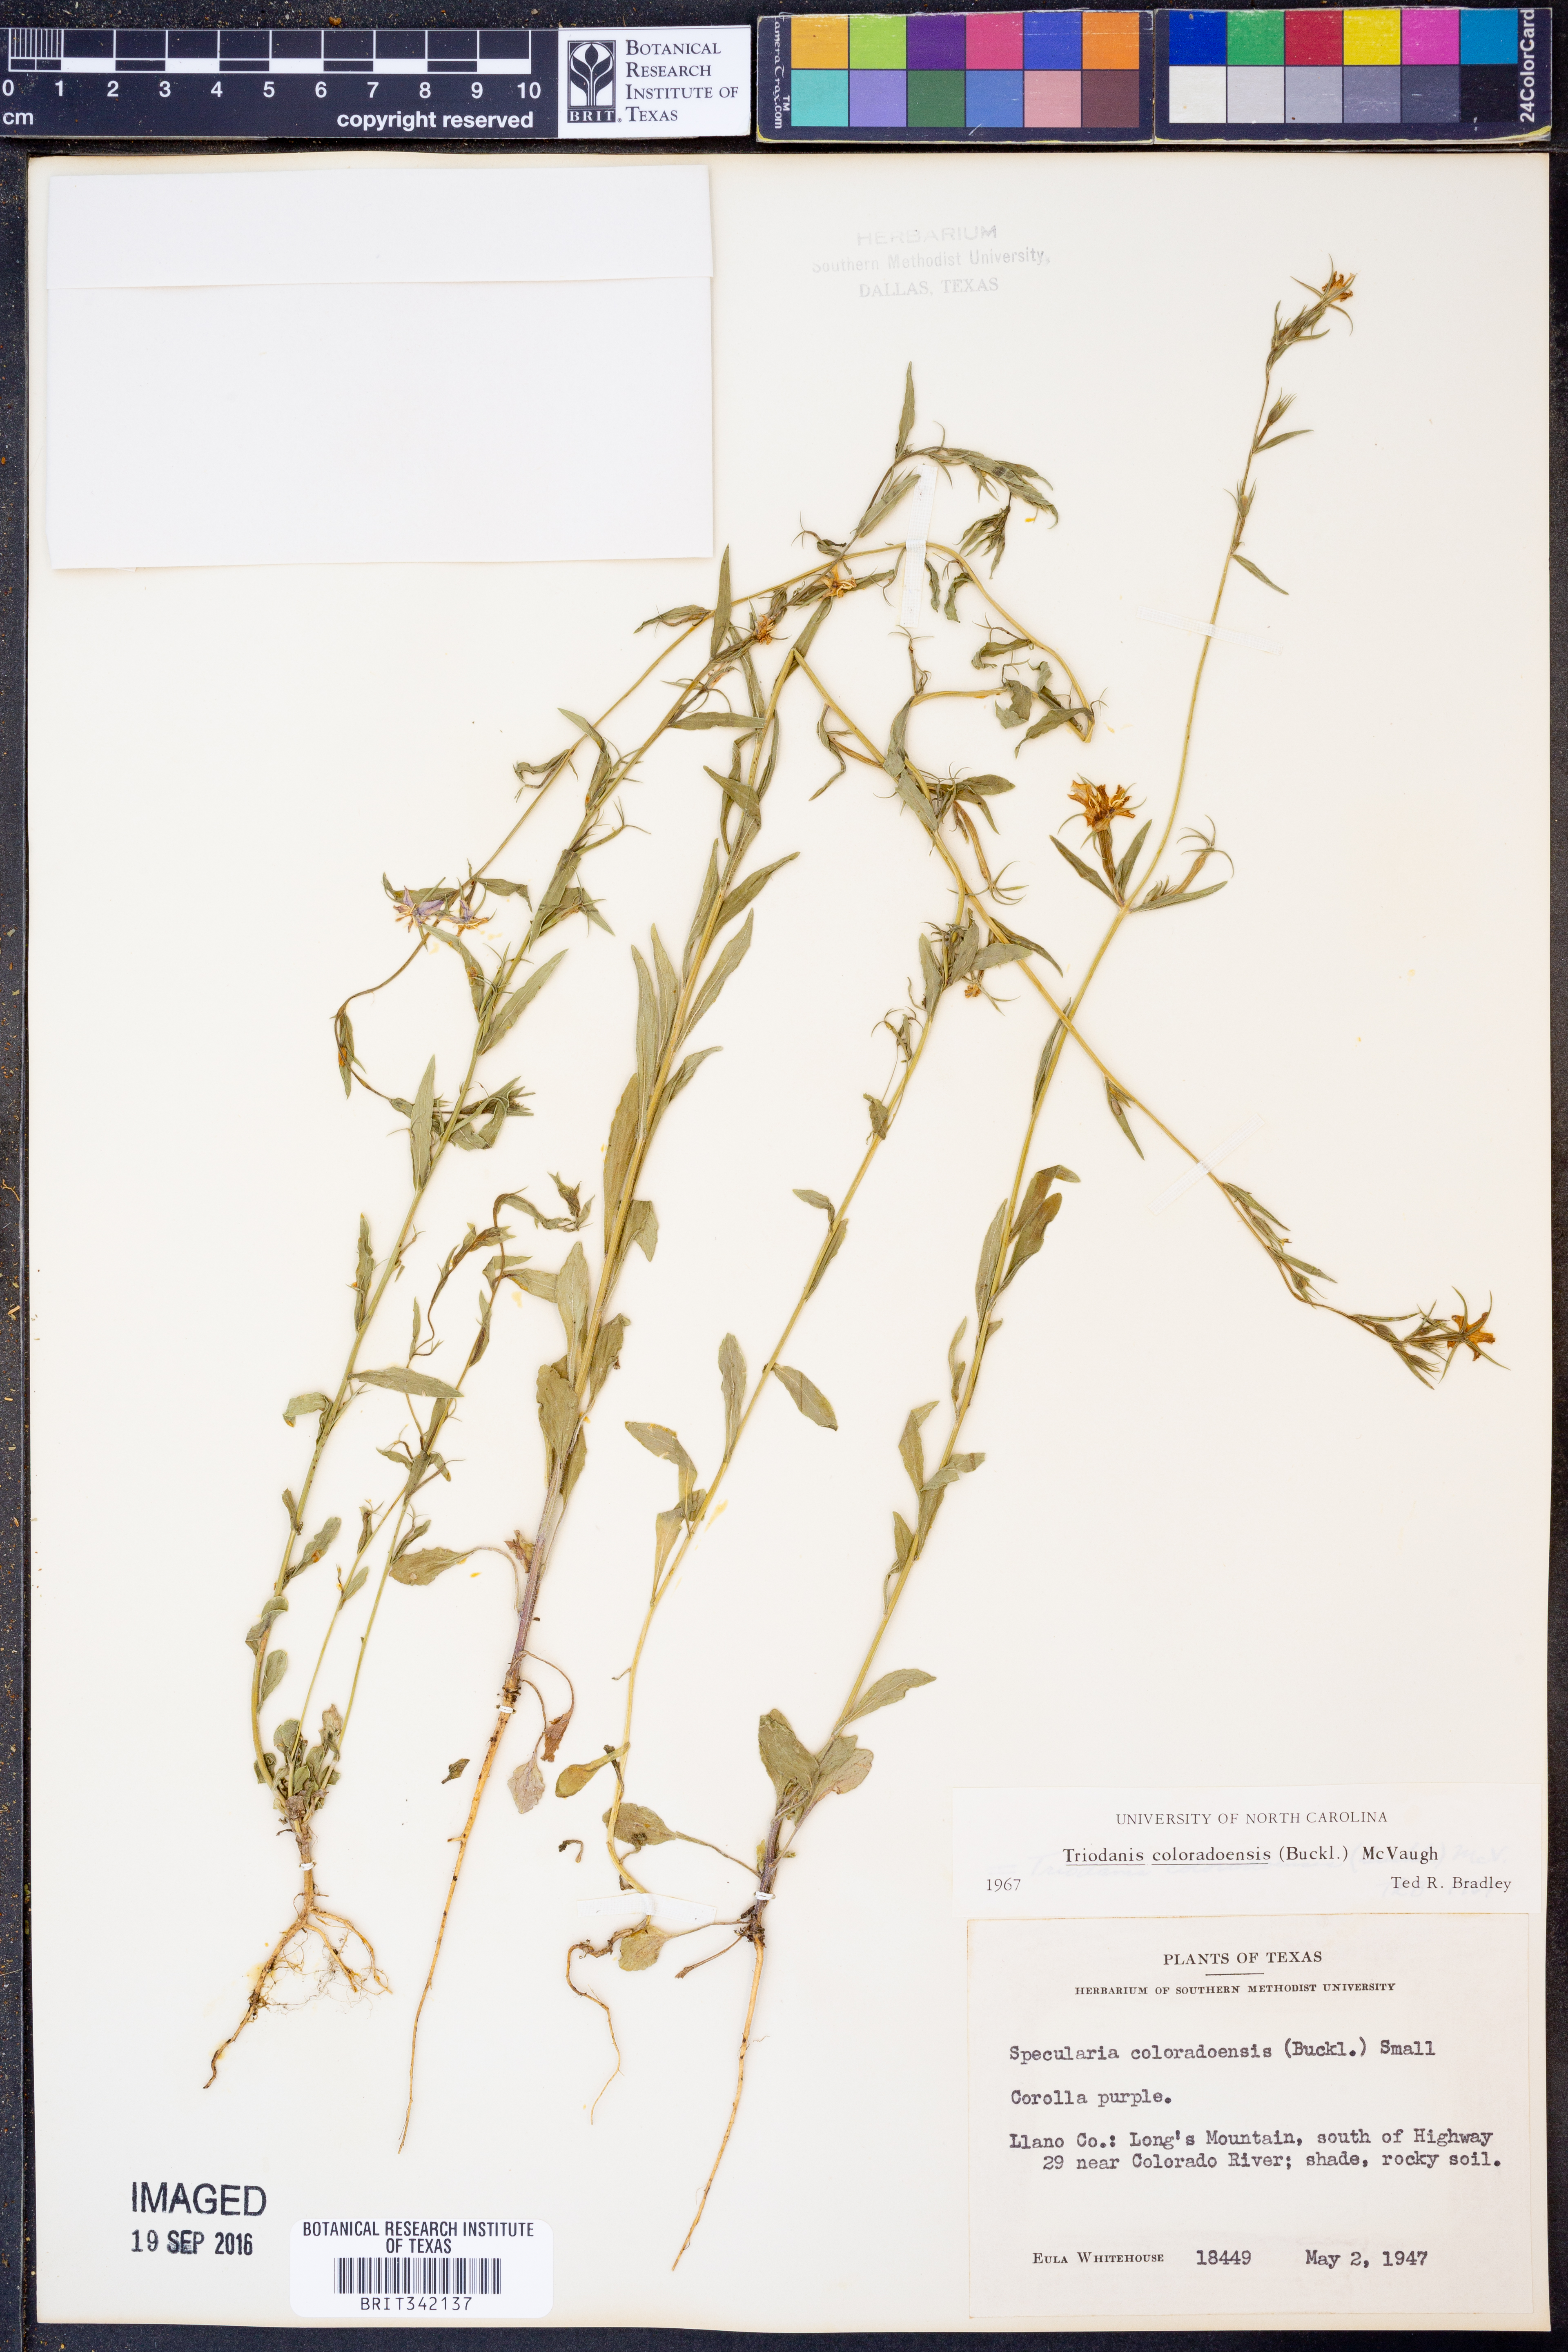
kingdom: Plantae
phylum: Tracheophyta
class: Magnoliopsida
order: Asterales
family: Campanulaceae
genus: Triodanis
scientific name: Triodanis coloradoensis
